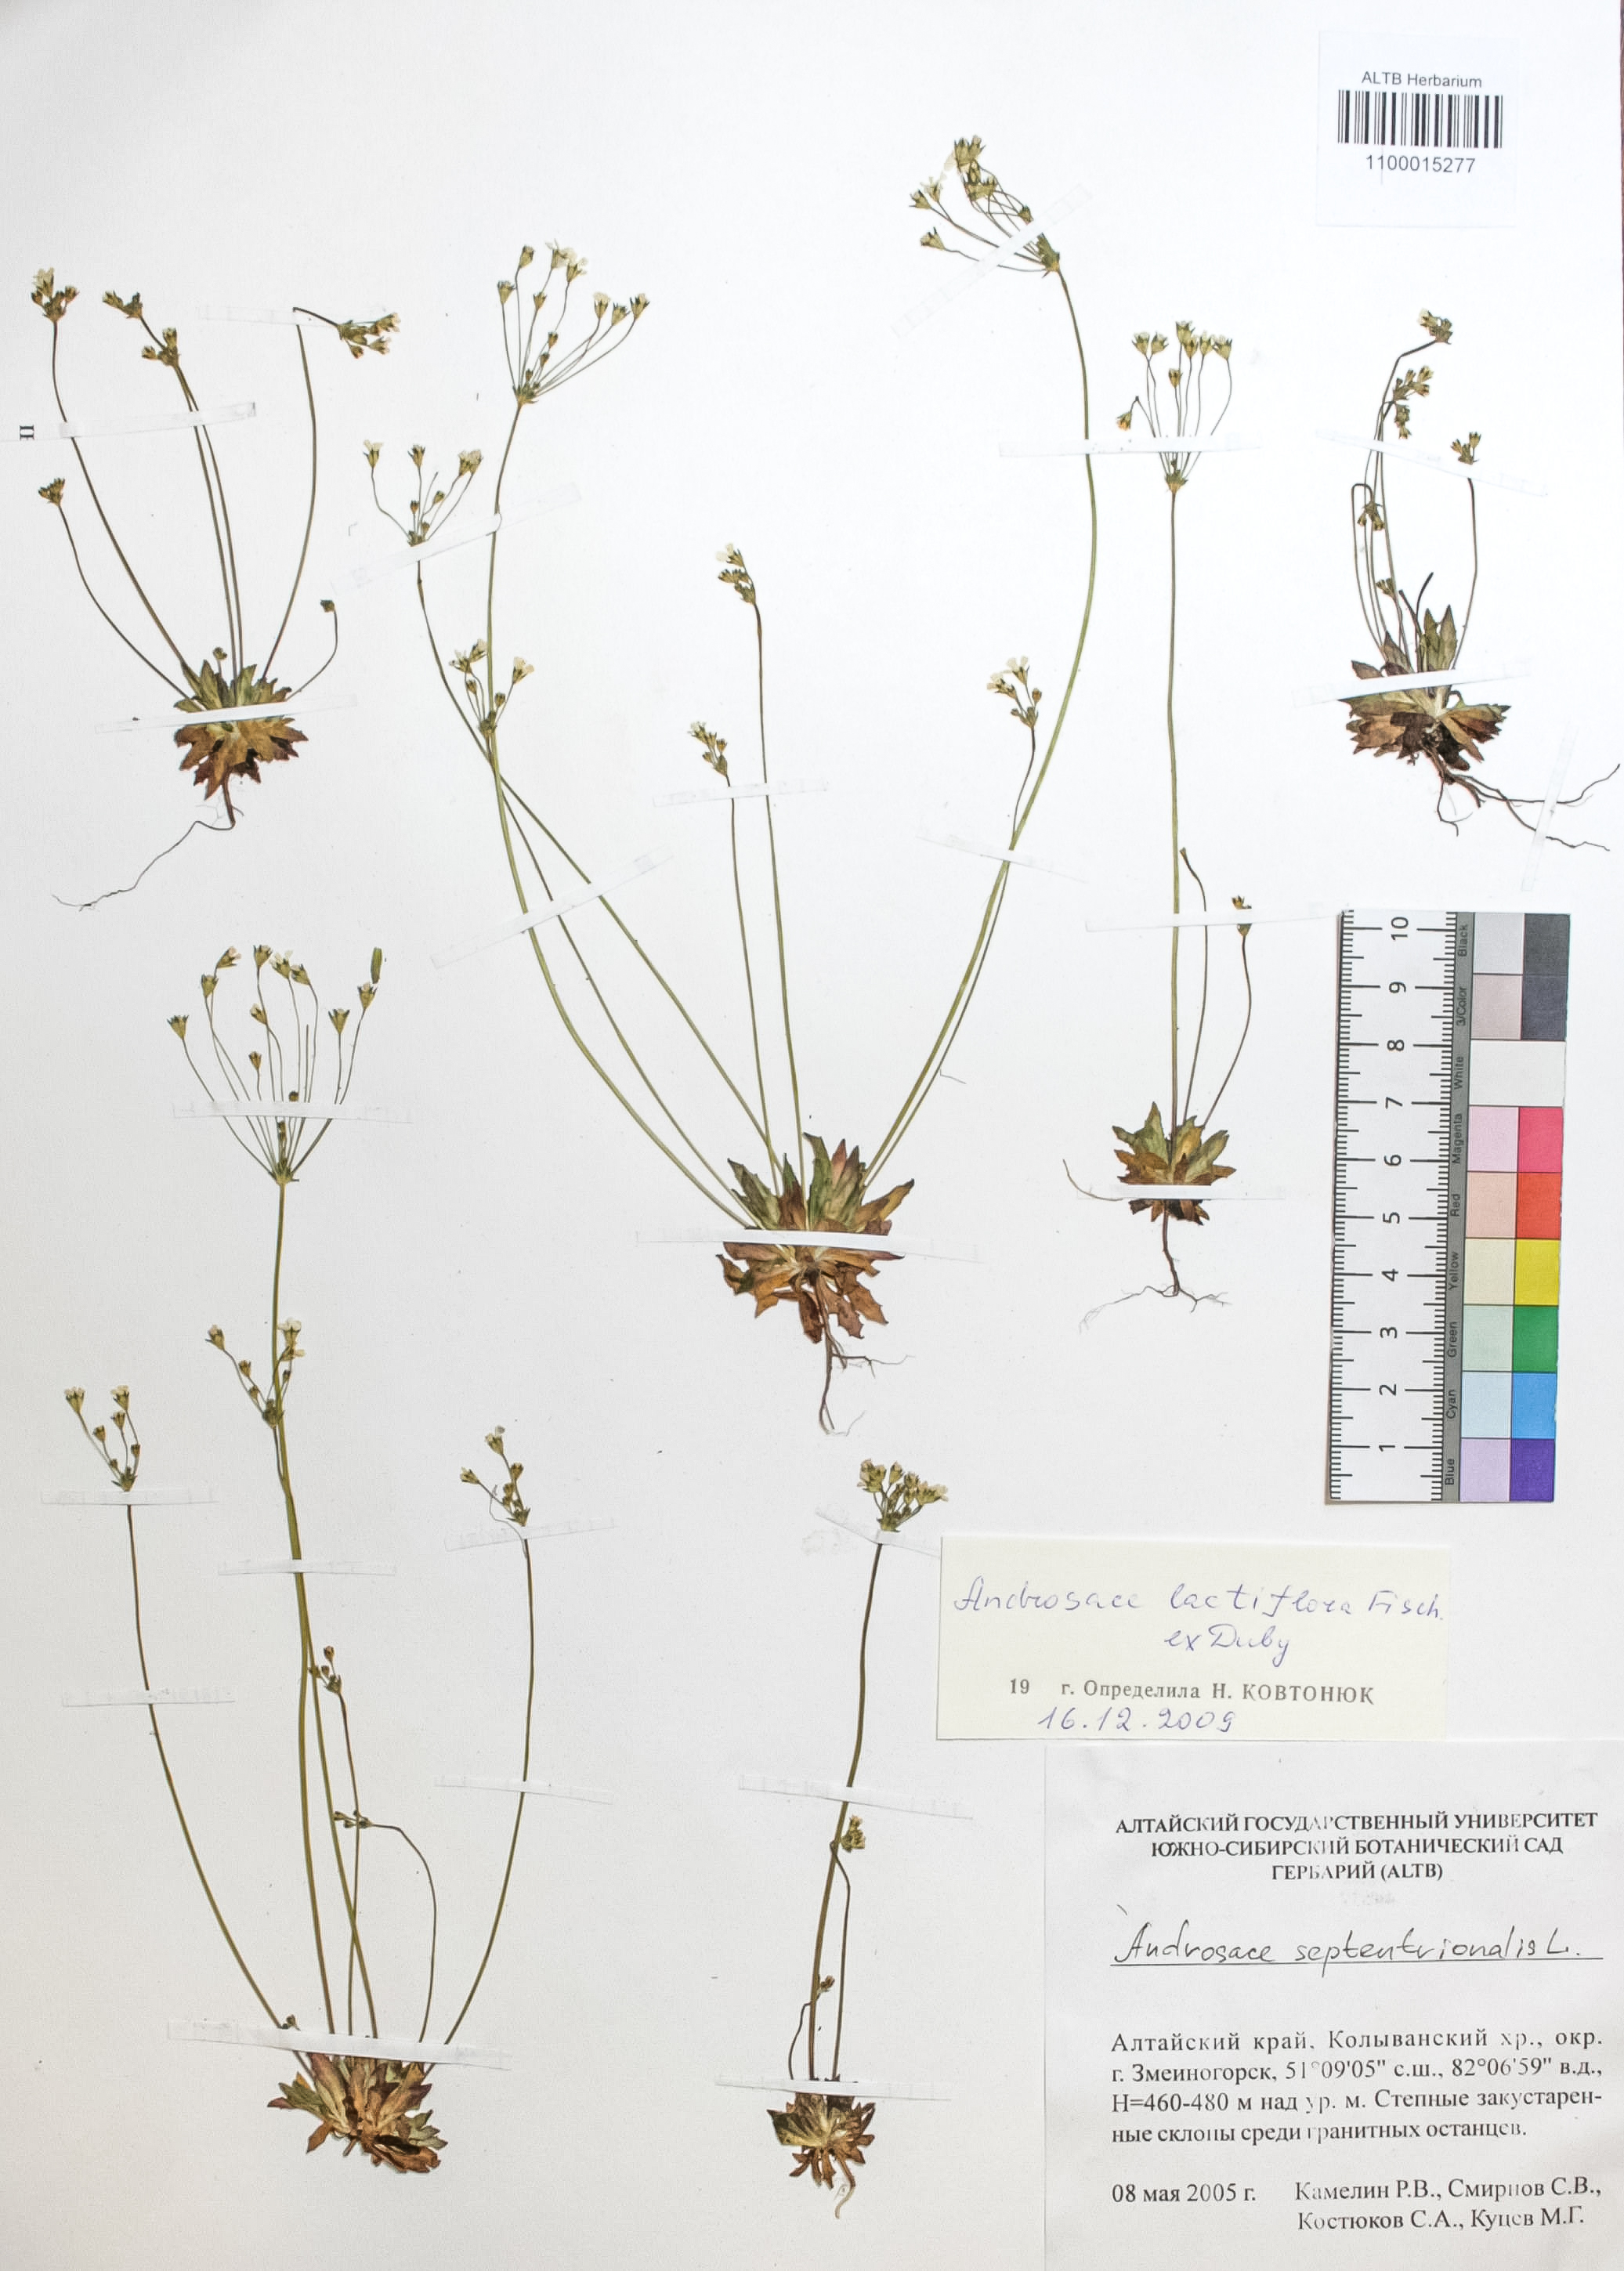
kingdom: Plantae
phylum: Tracheophyta
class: Magnoliopsida
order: Ericales
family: Primulaceae
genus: Androsace
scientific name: Androsace lactiflora
